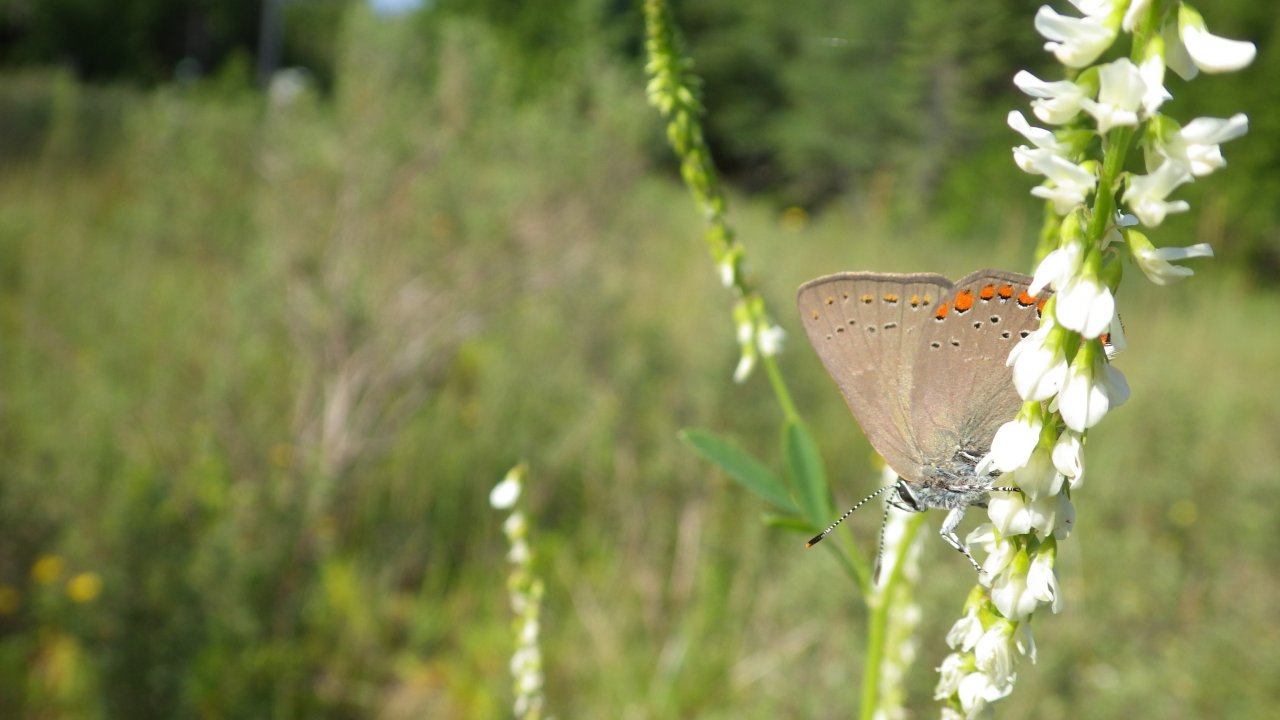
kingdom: Animalia
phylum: Arthropoda
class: Insecta
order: Lepidoptera
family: Lycaenidae
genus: Harkenclenus
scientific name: Harkenclenus titus
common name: Coral Hairstreak
